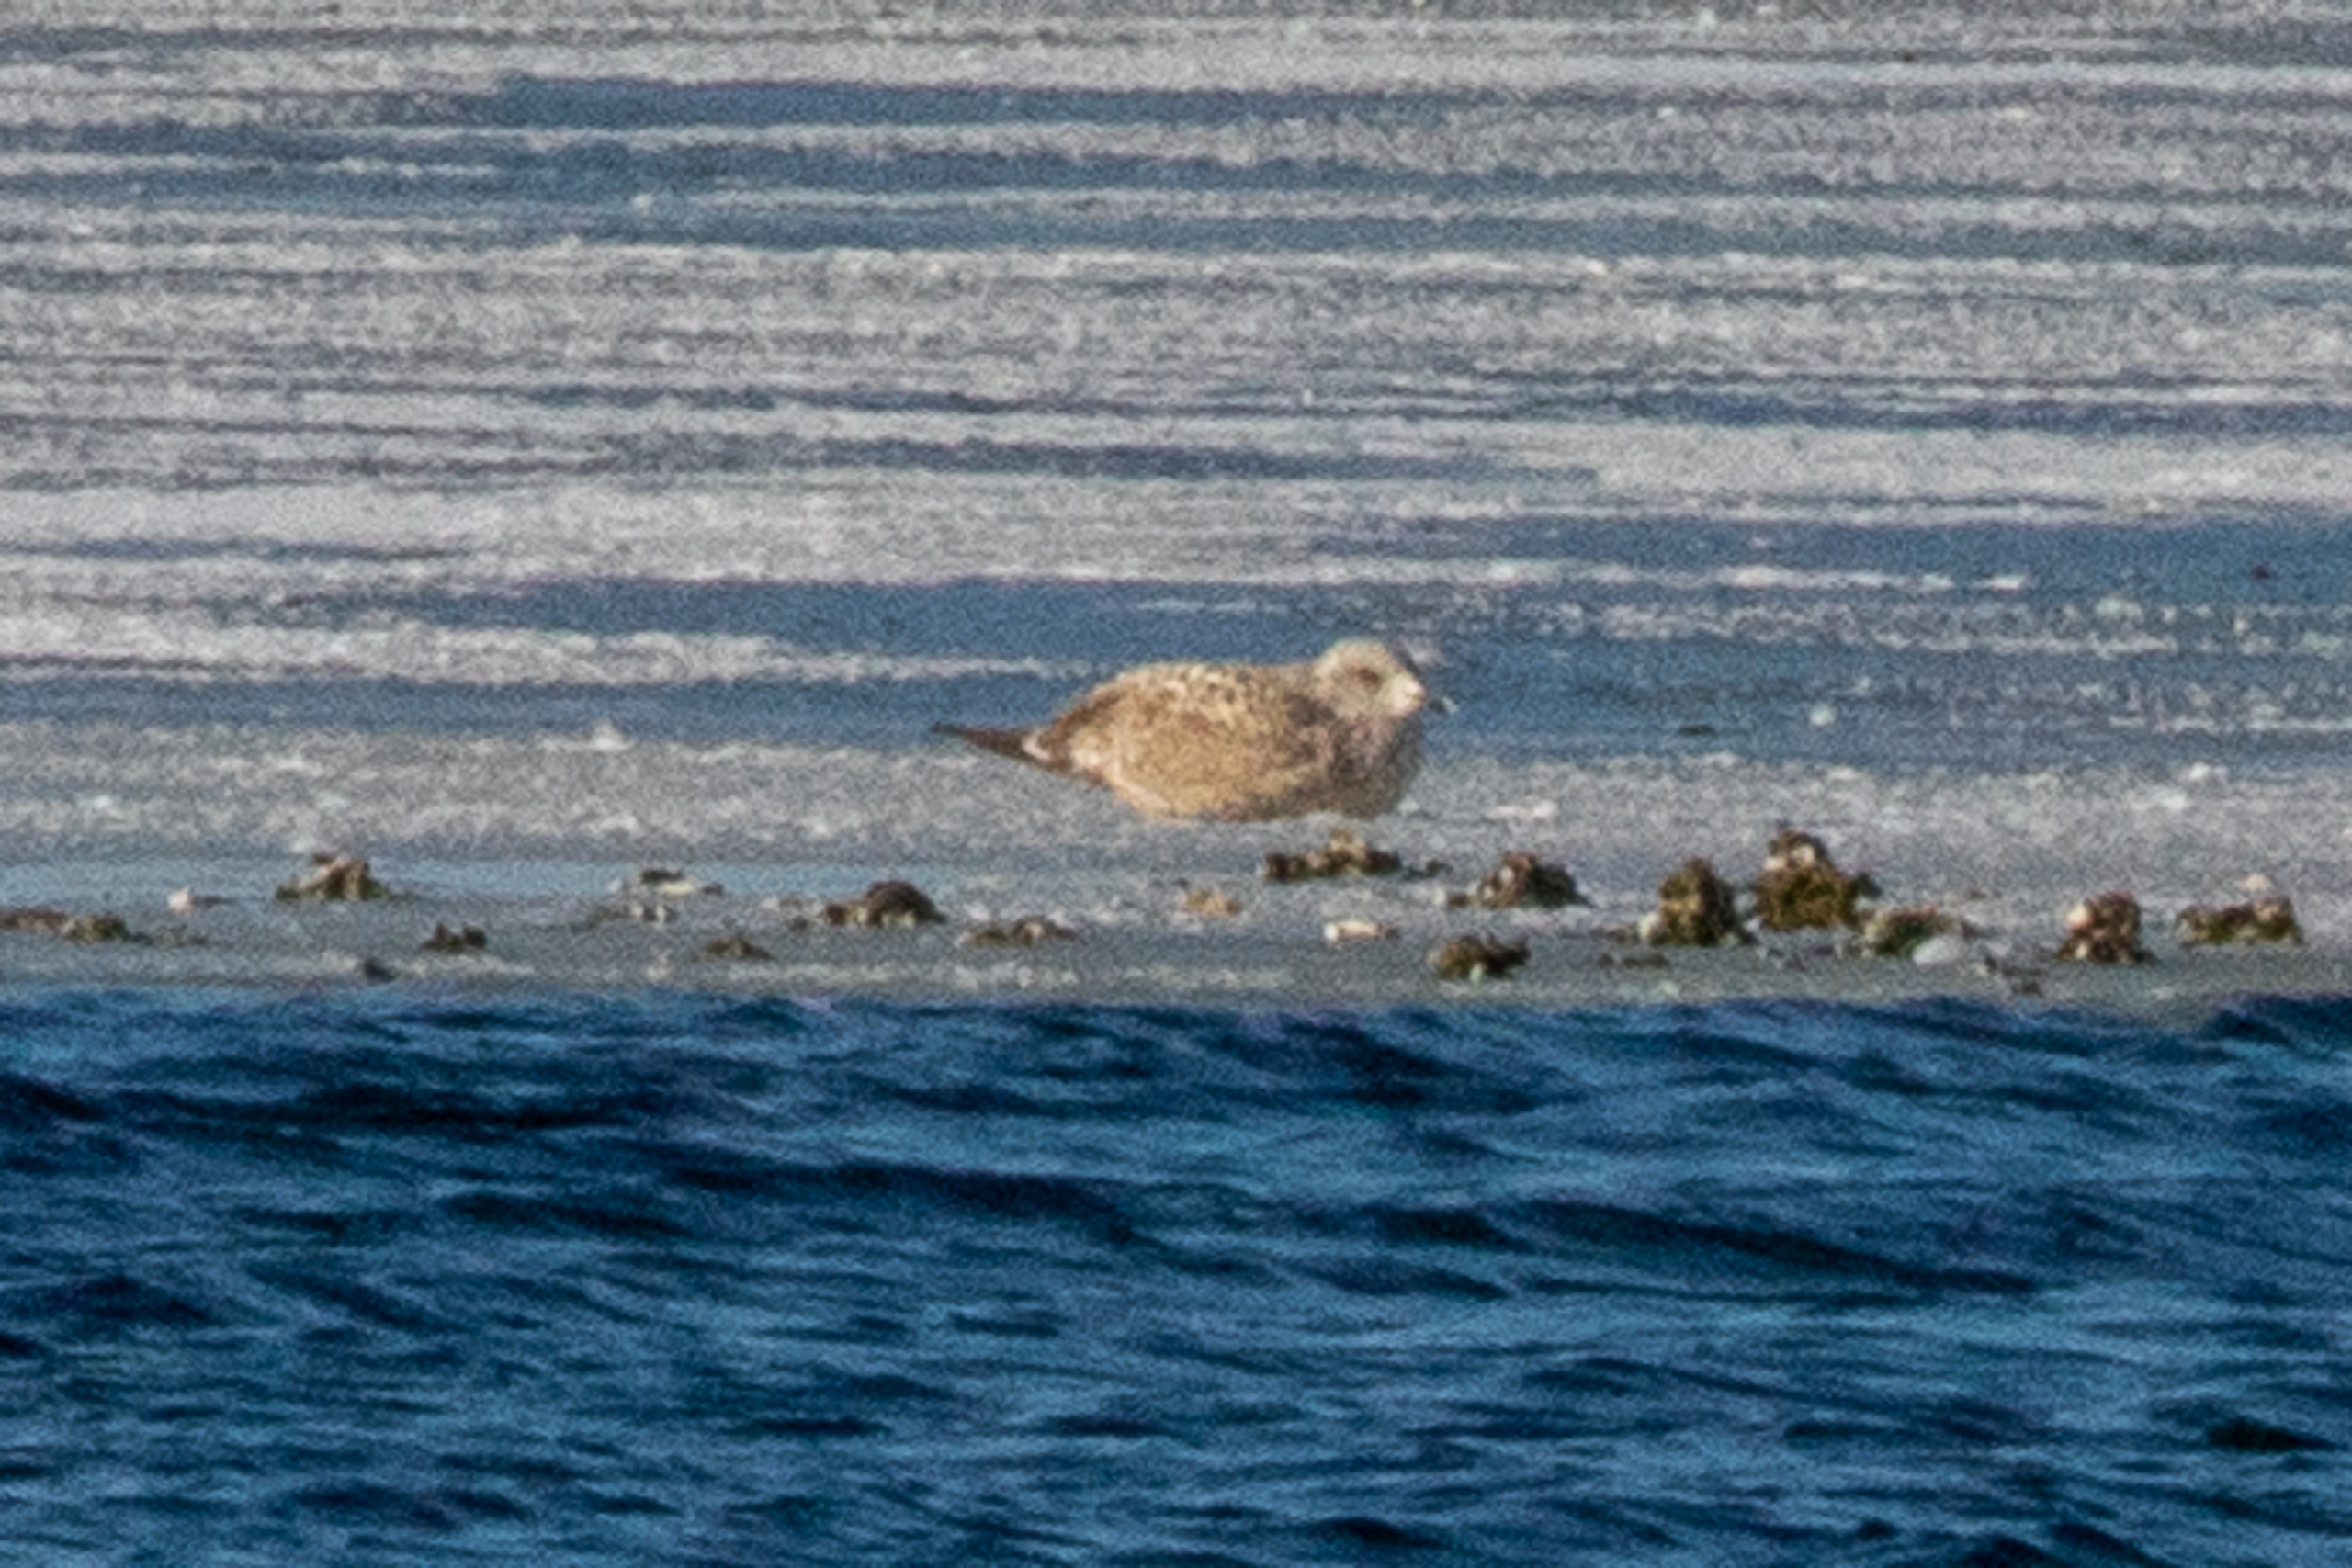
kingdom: Animalia
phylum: Chordata
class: Aves
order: Charadriiformes
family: Laridae
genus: Larus
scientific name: Larus argentatus
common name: Sølvmåge
